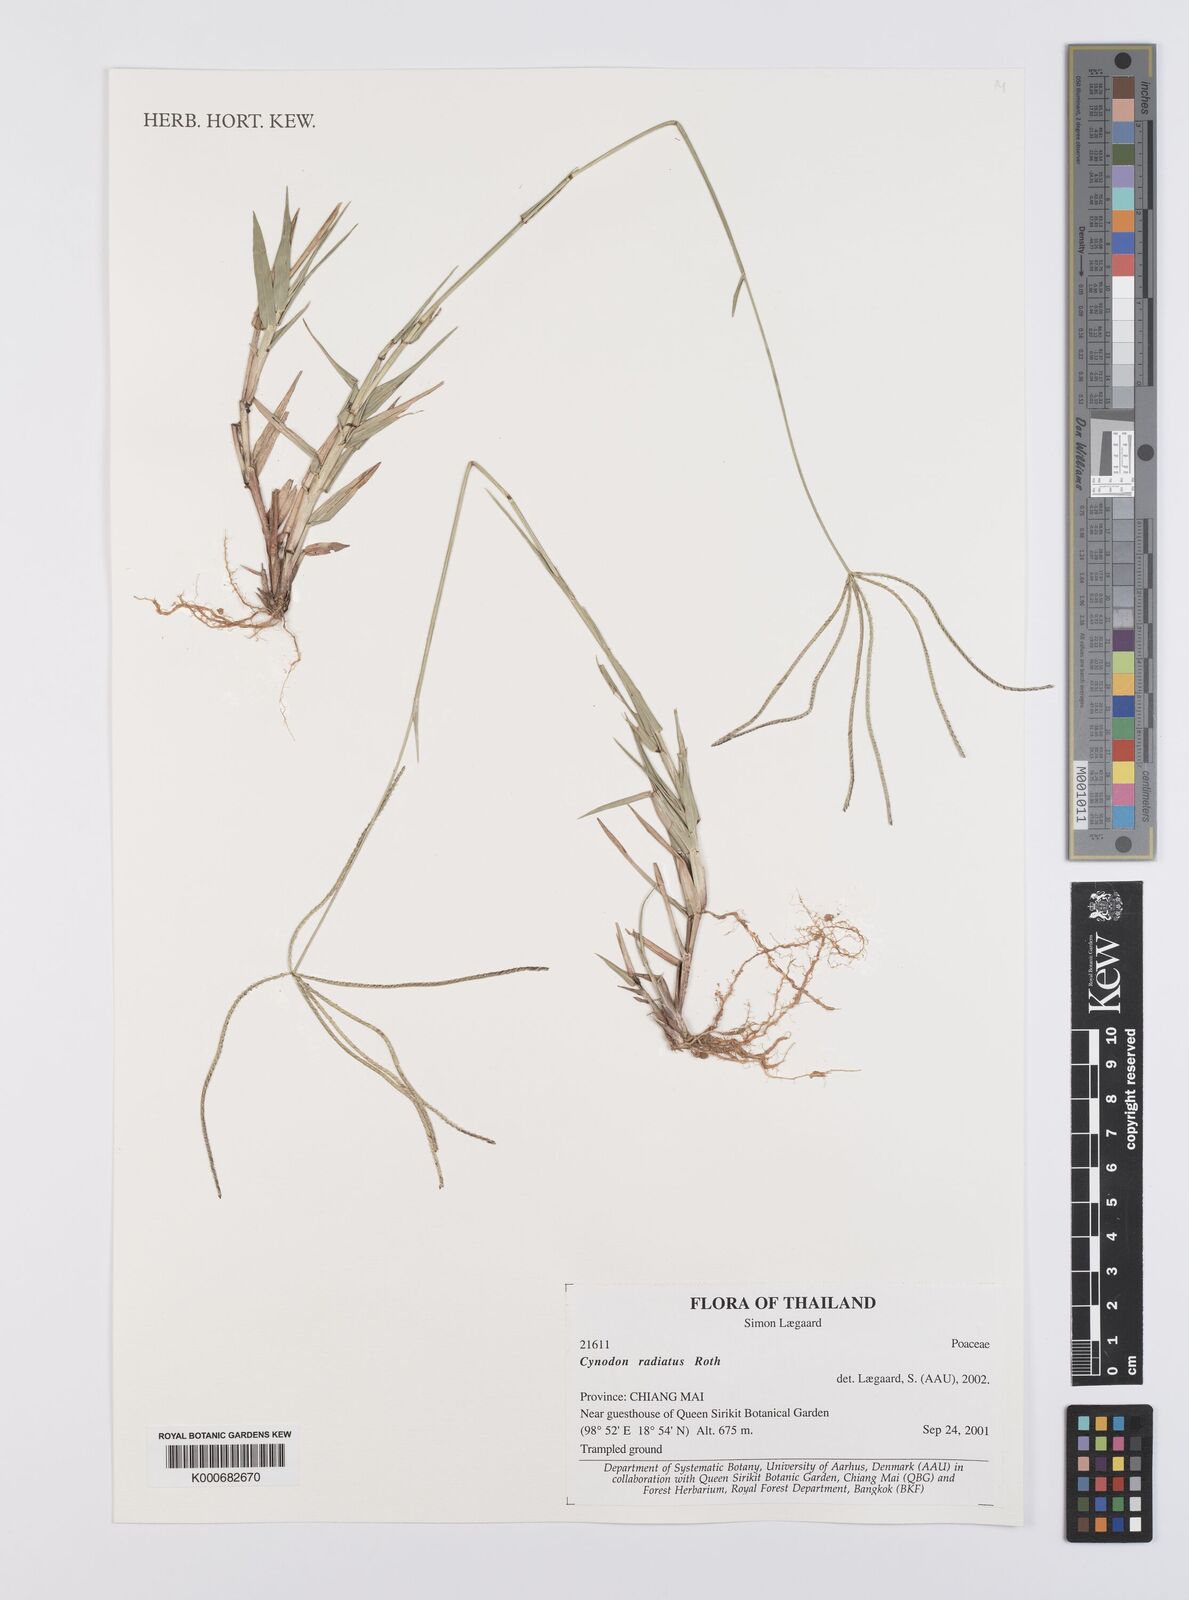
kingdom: Plantae
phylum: Tracheophyta
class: Liliopsida
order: Poales
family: Poaceae
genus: Cynodon
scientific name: Cynodon radiatus
